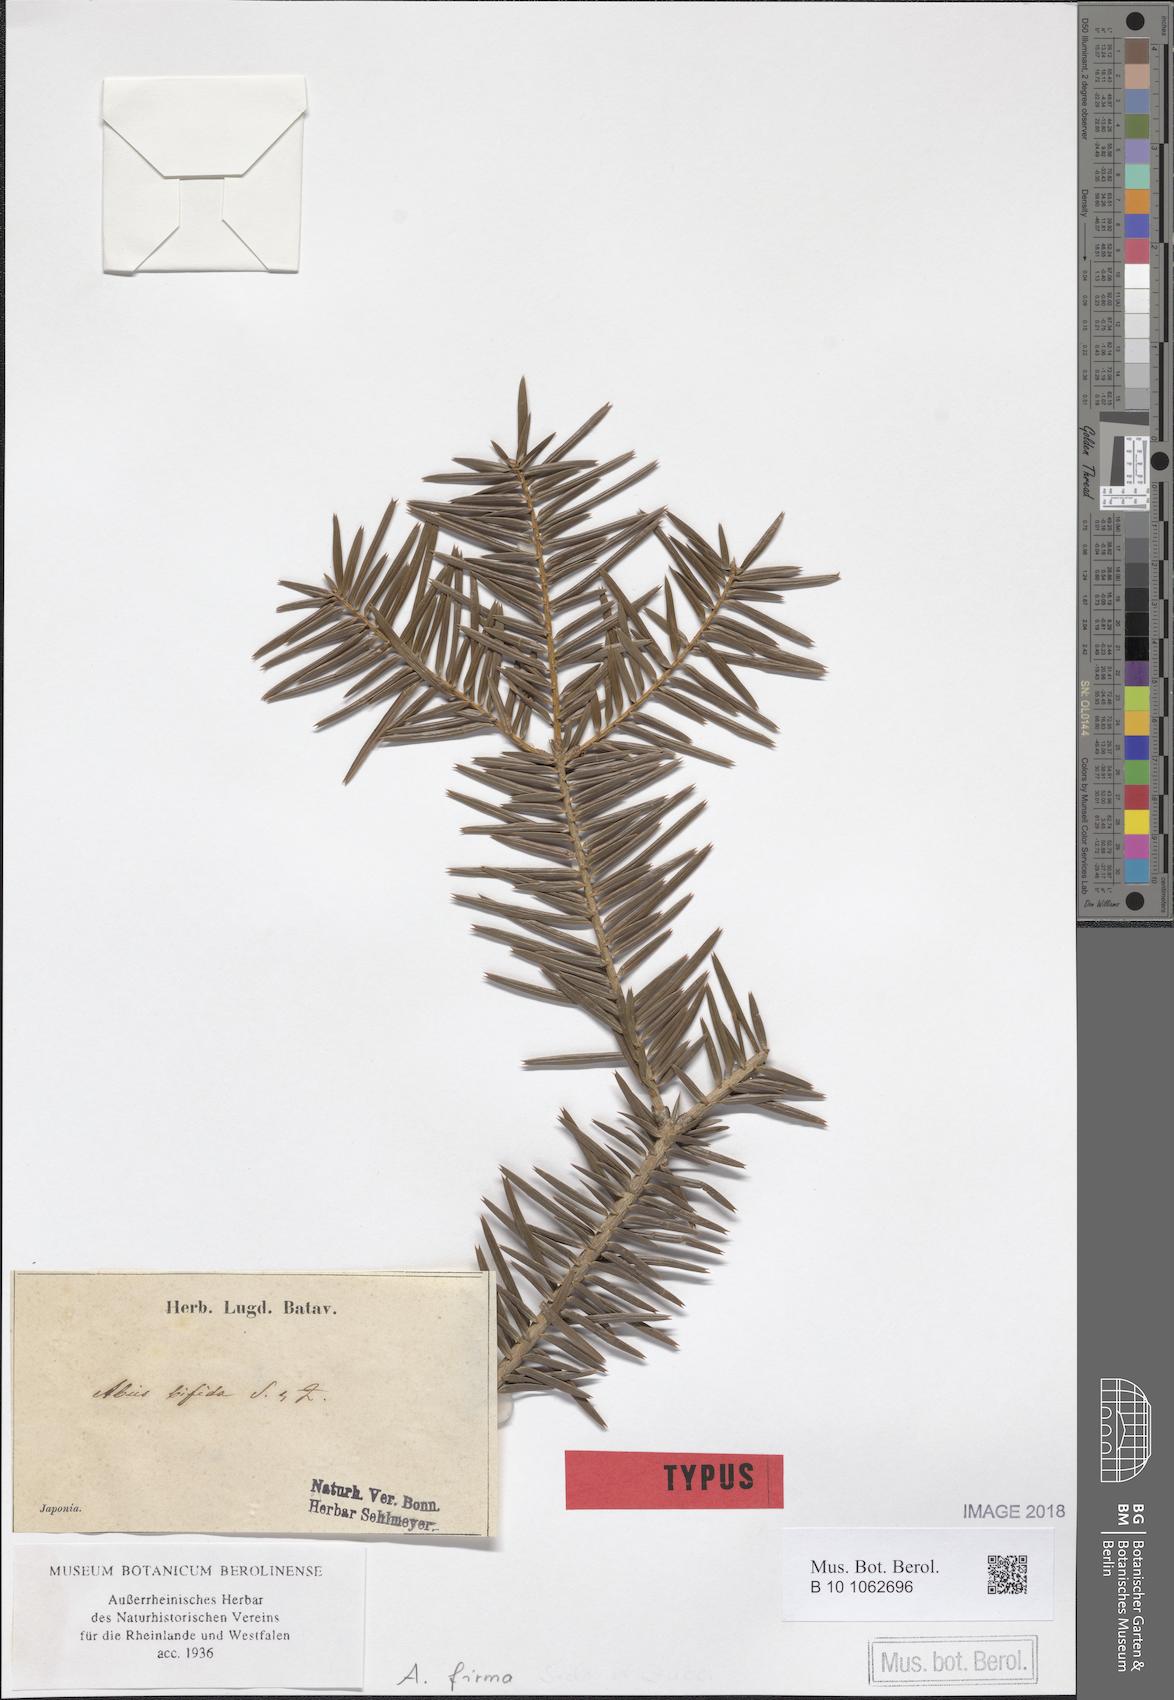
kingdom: Plantae
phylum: Tracheophyta
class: Pinopsida
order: Pinales
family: Pinaceae
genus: Abies
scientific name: Abies firma
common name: Momi fir
